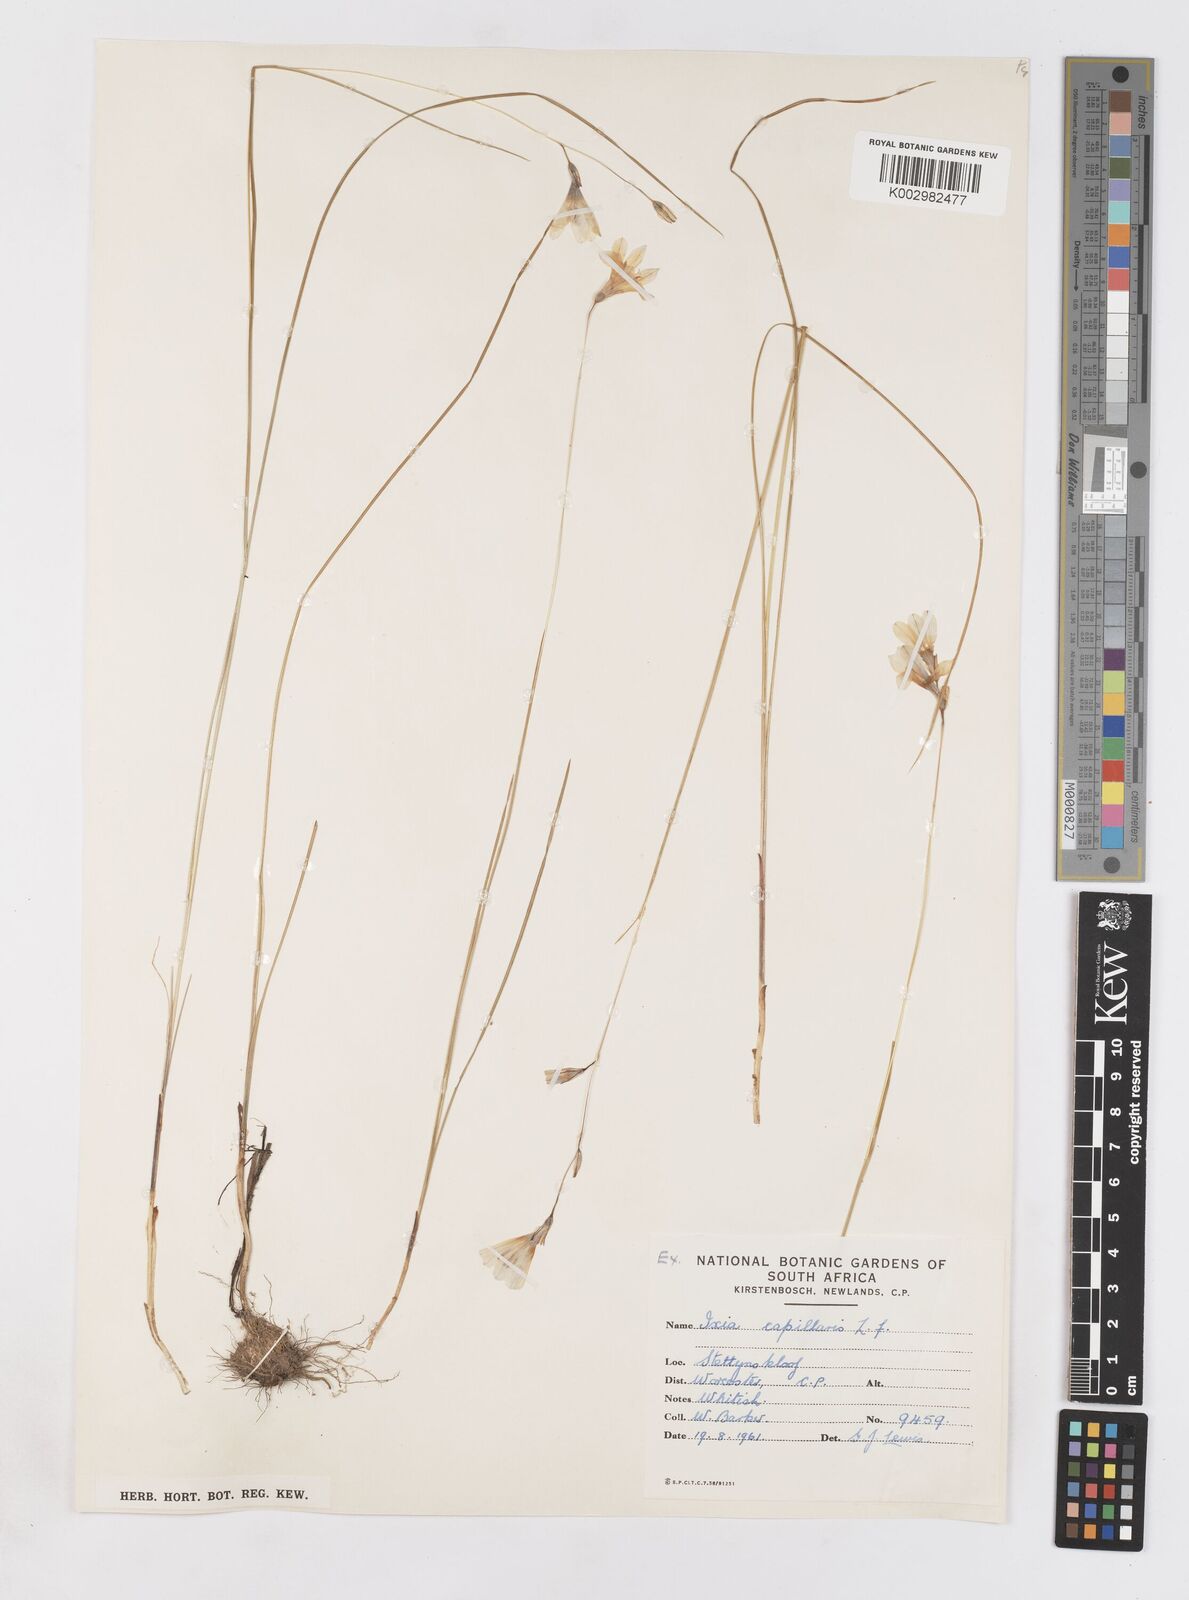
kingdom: Plantae
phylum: Tracheophyta
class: Liliopsida
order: Asparagales
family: Iridaceae
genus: Ixia
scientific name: Ixia capillaris
